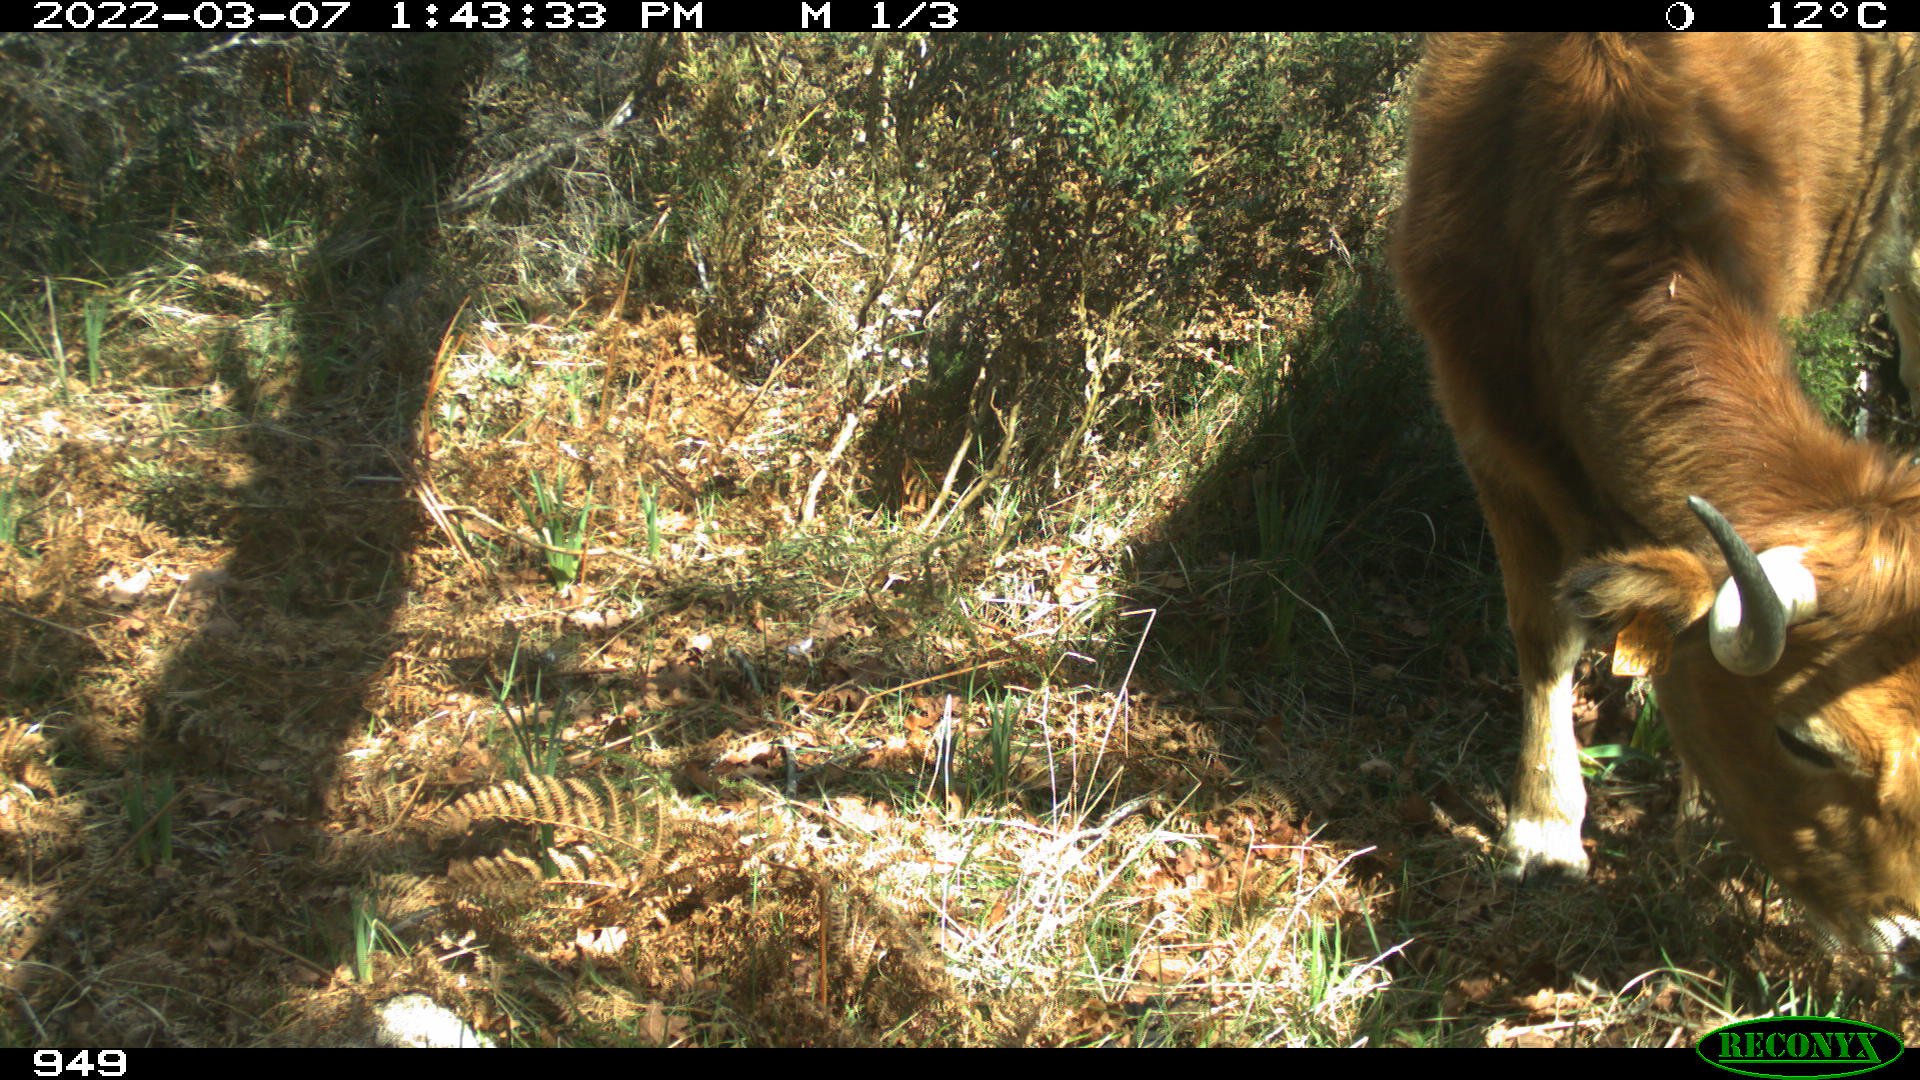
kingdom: Animalia
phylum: Chordata
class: Mammalia
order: Artiodactyla
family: Bovidae
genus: Bos
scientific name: Bos taurus
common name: Domesticated cattle
